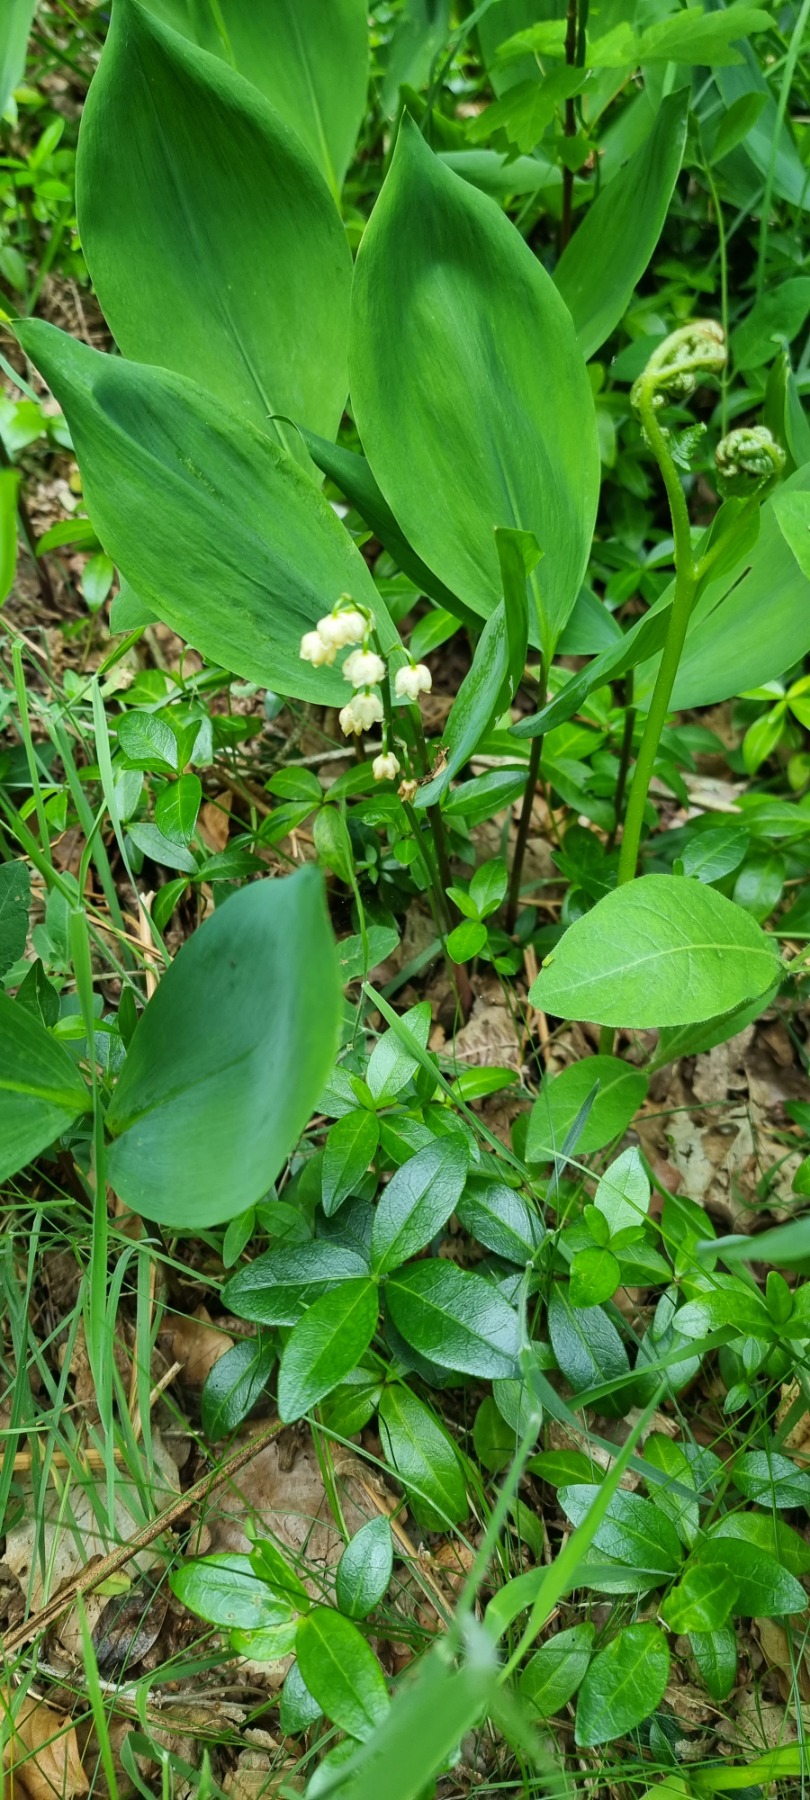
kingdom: Plantae
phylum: Tracheophyta
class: Liliopsida
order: Asparagales
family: Asparagaceae
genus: Convallaria
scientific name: Convallaria majalis
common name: Liljekonval
